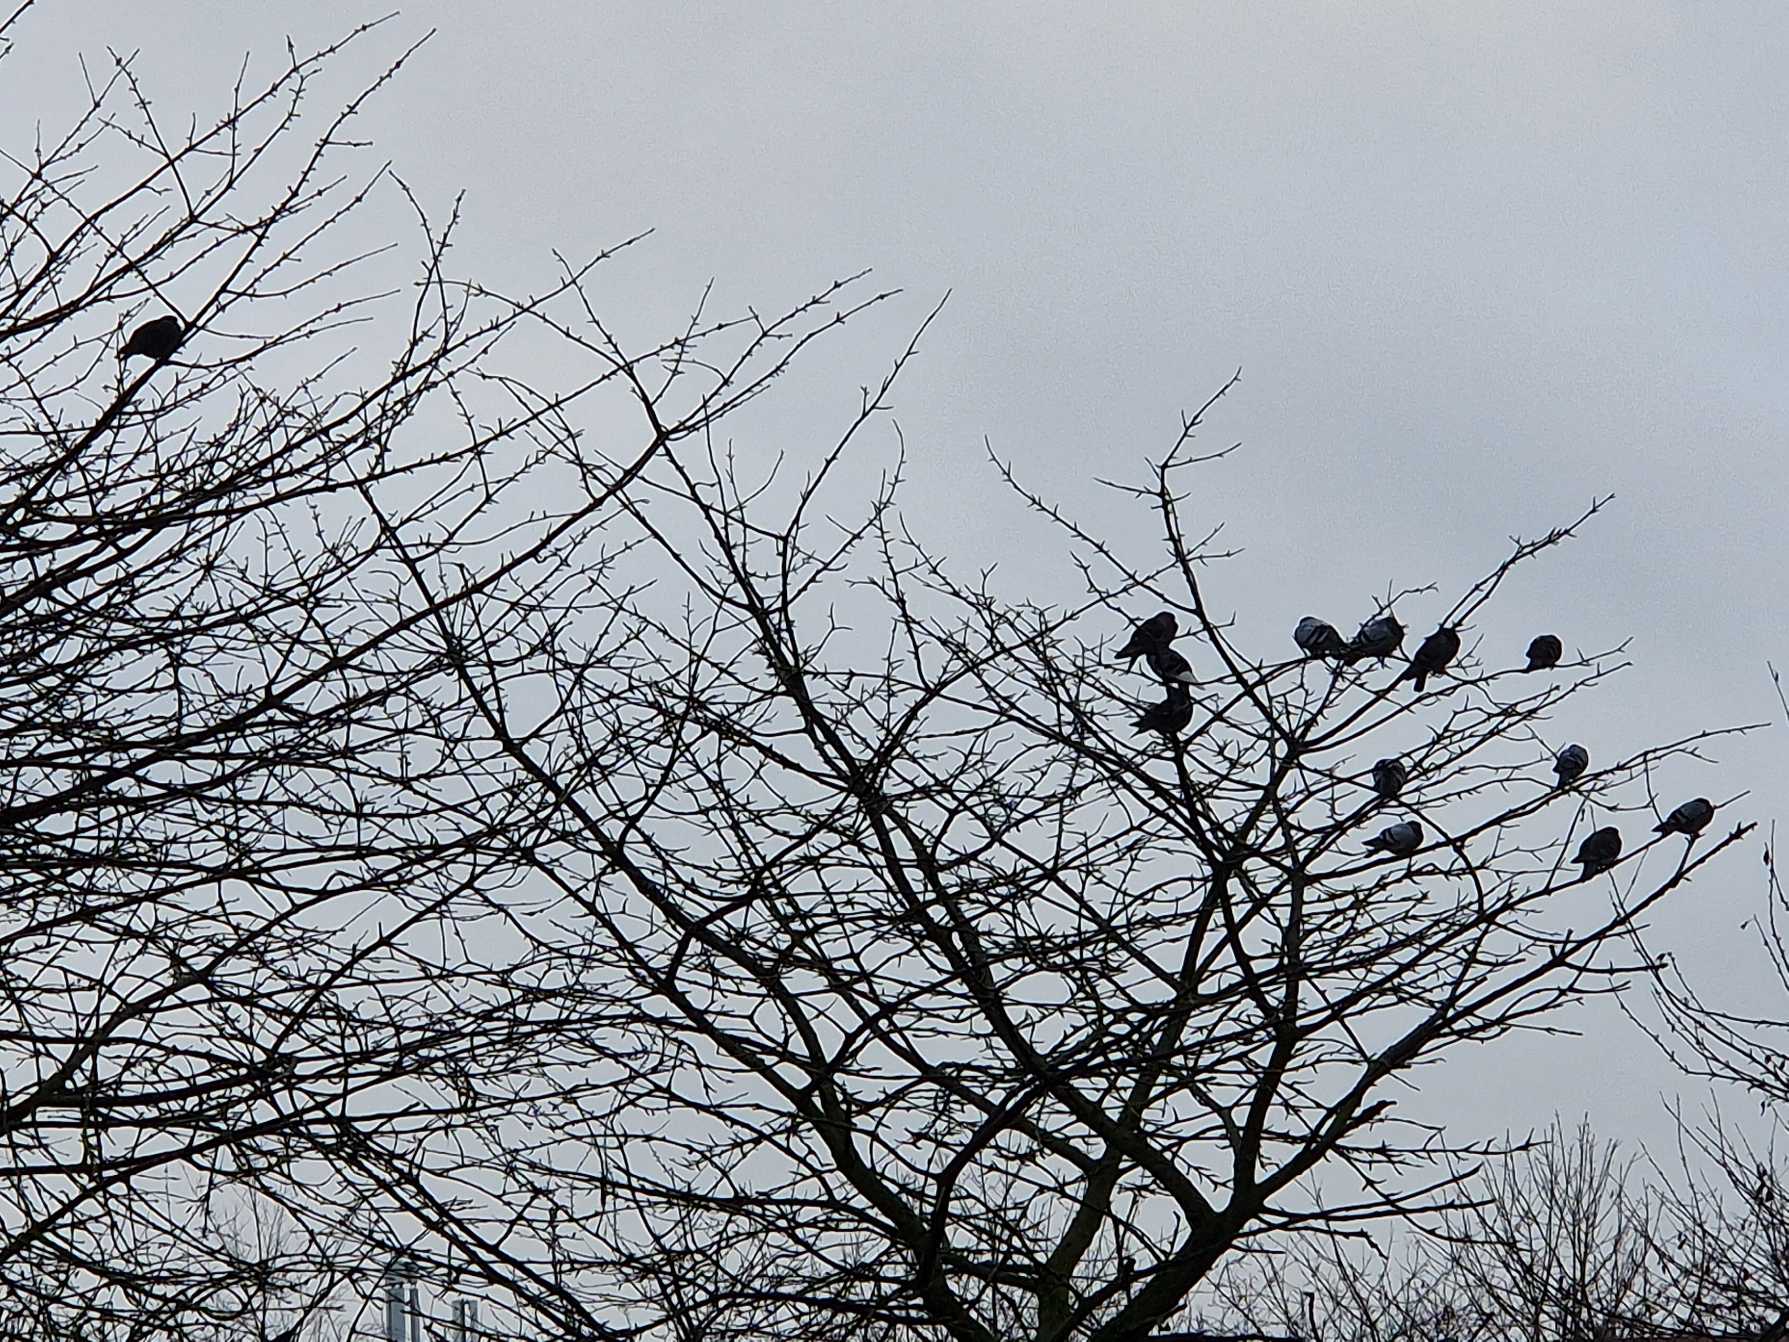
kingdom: Animalia
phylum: Chordata
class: Aves
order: Columbiformes
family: Columbidae
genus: Columba
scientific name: Columba livia
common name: Tamdue
